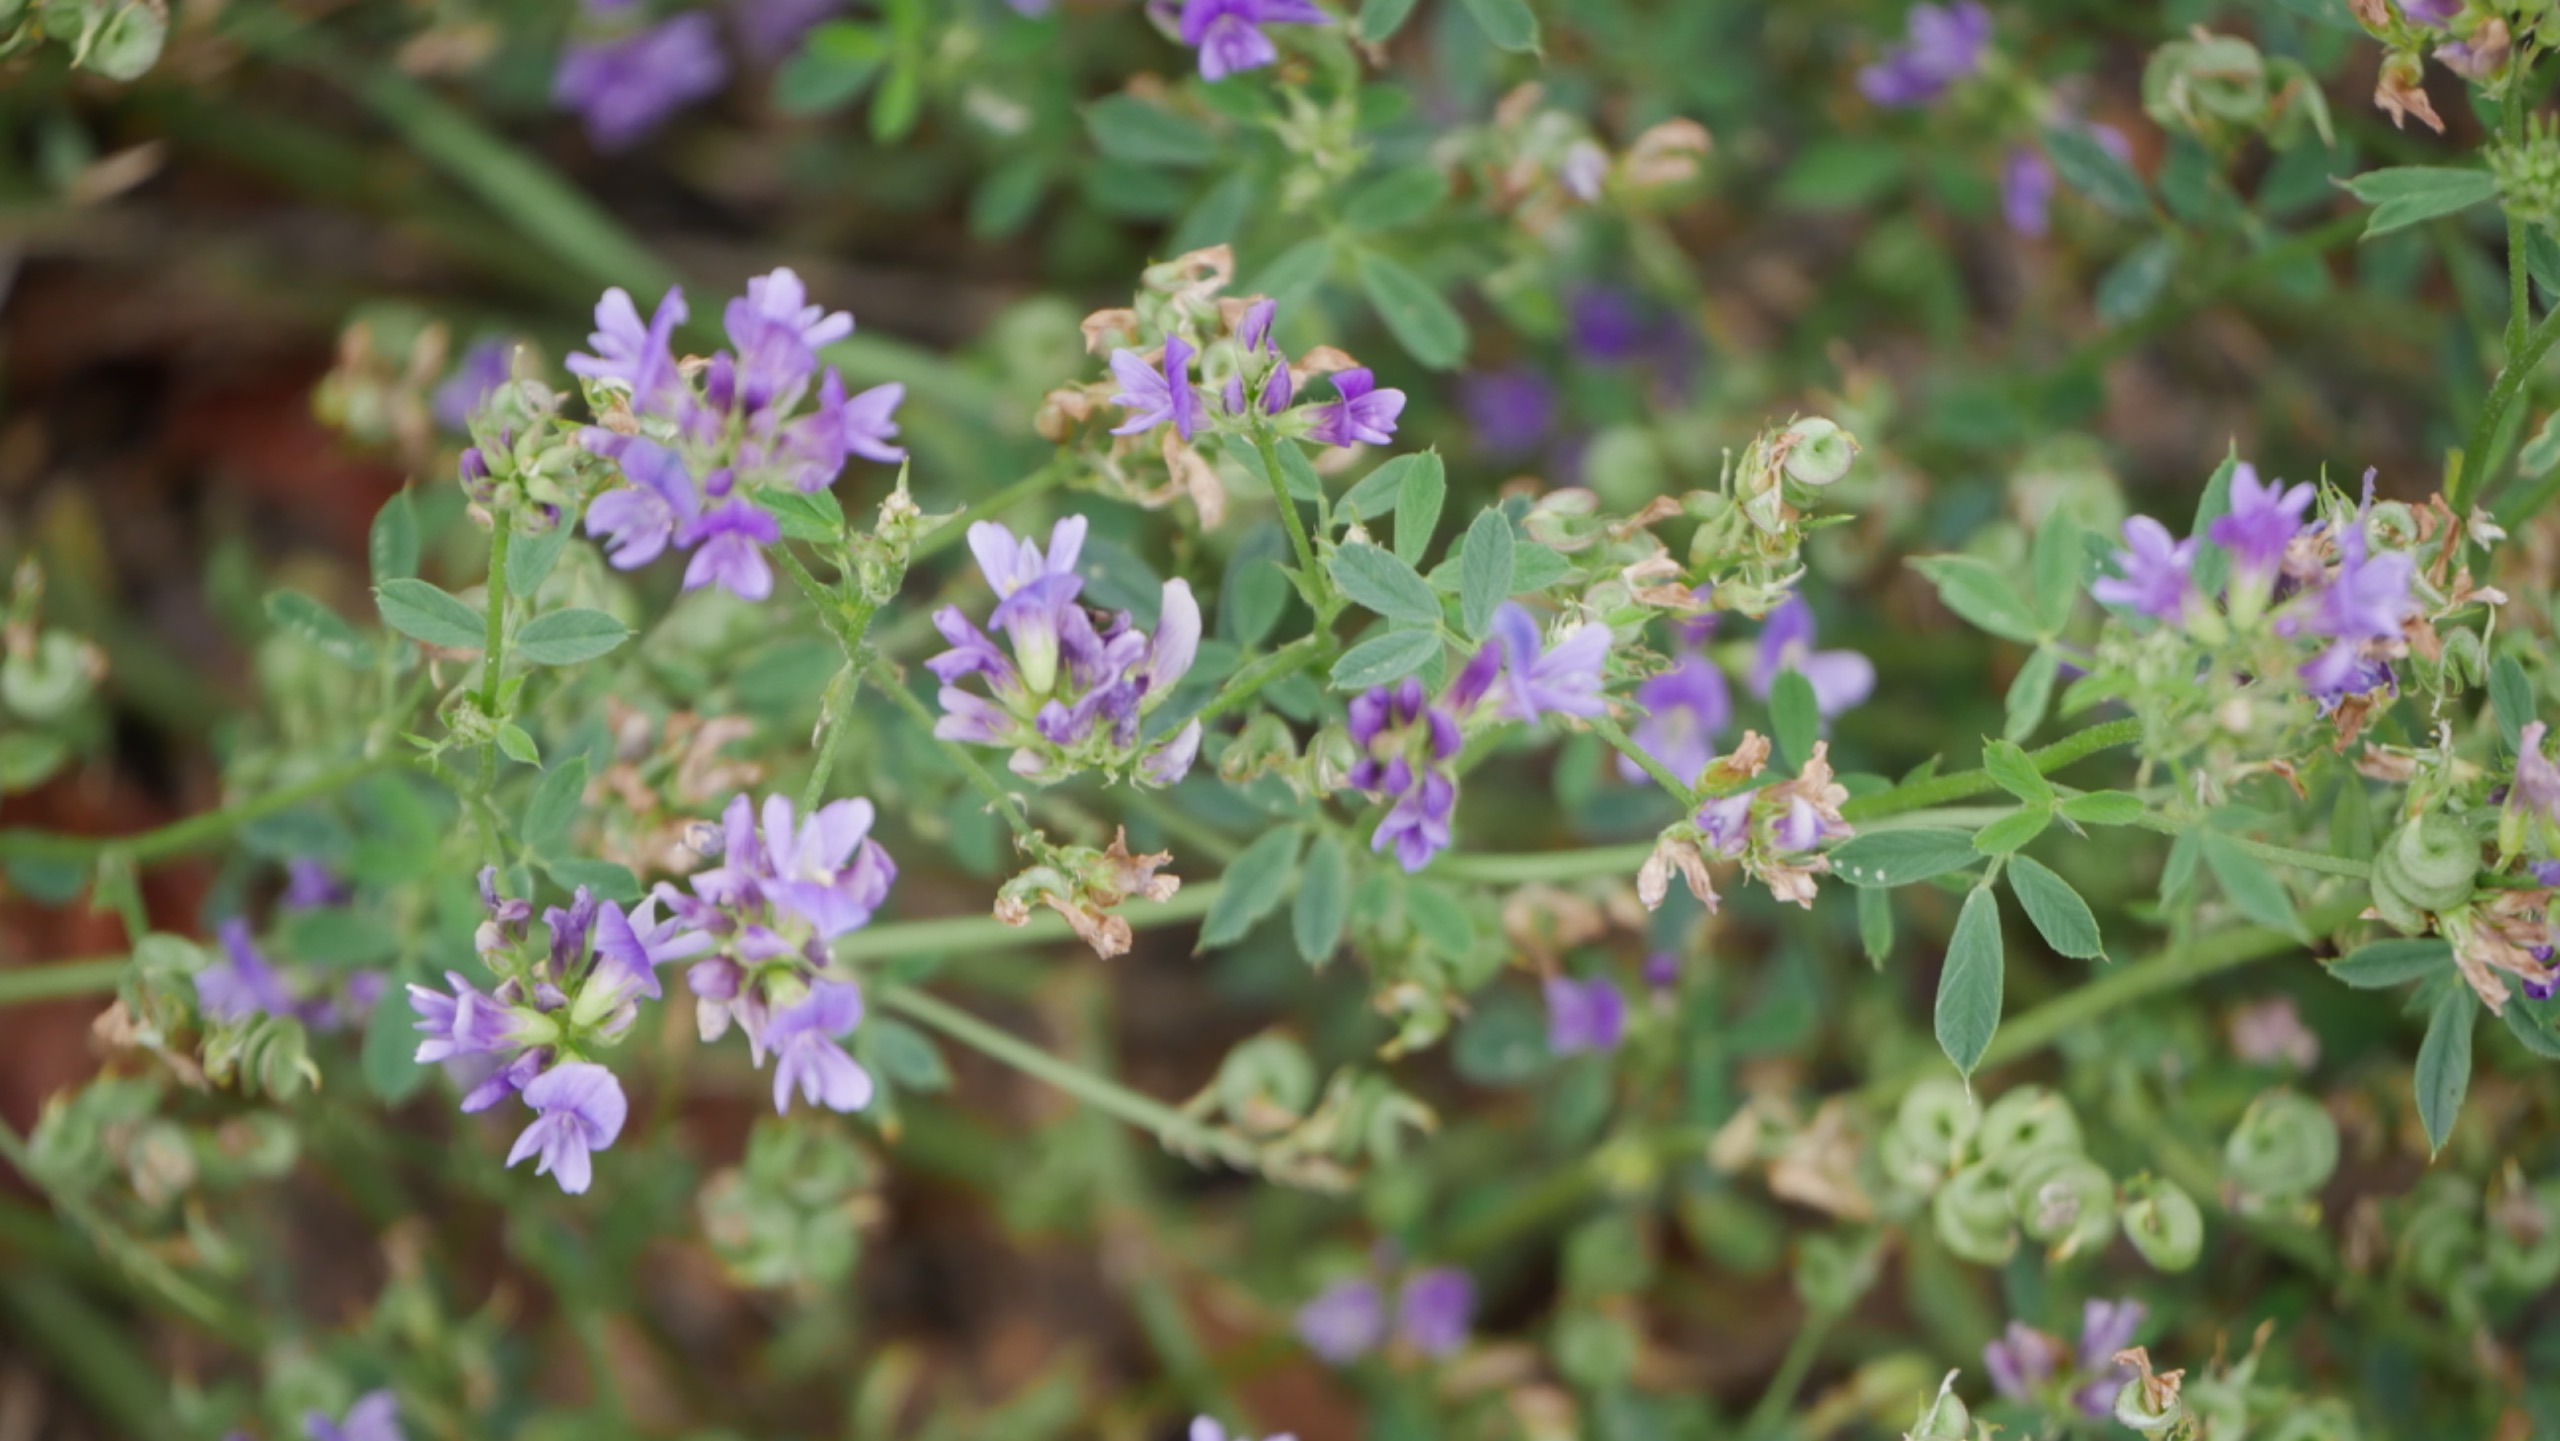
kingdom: Plantae
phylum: Tracheophyta
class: Magnoliopsida
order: Fabales
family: Fabaceae
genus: Medicago
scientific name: Medicago sativa
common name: Lucerne
